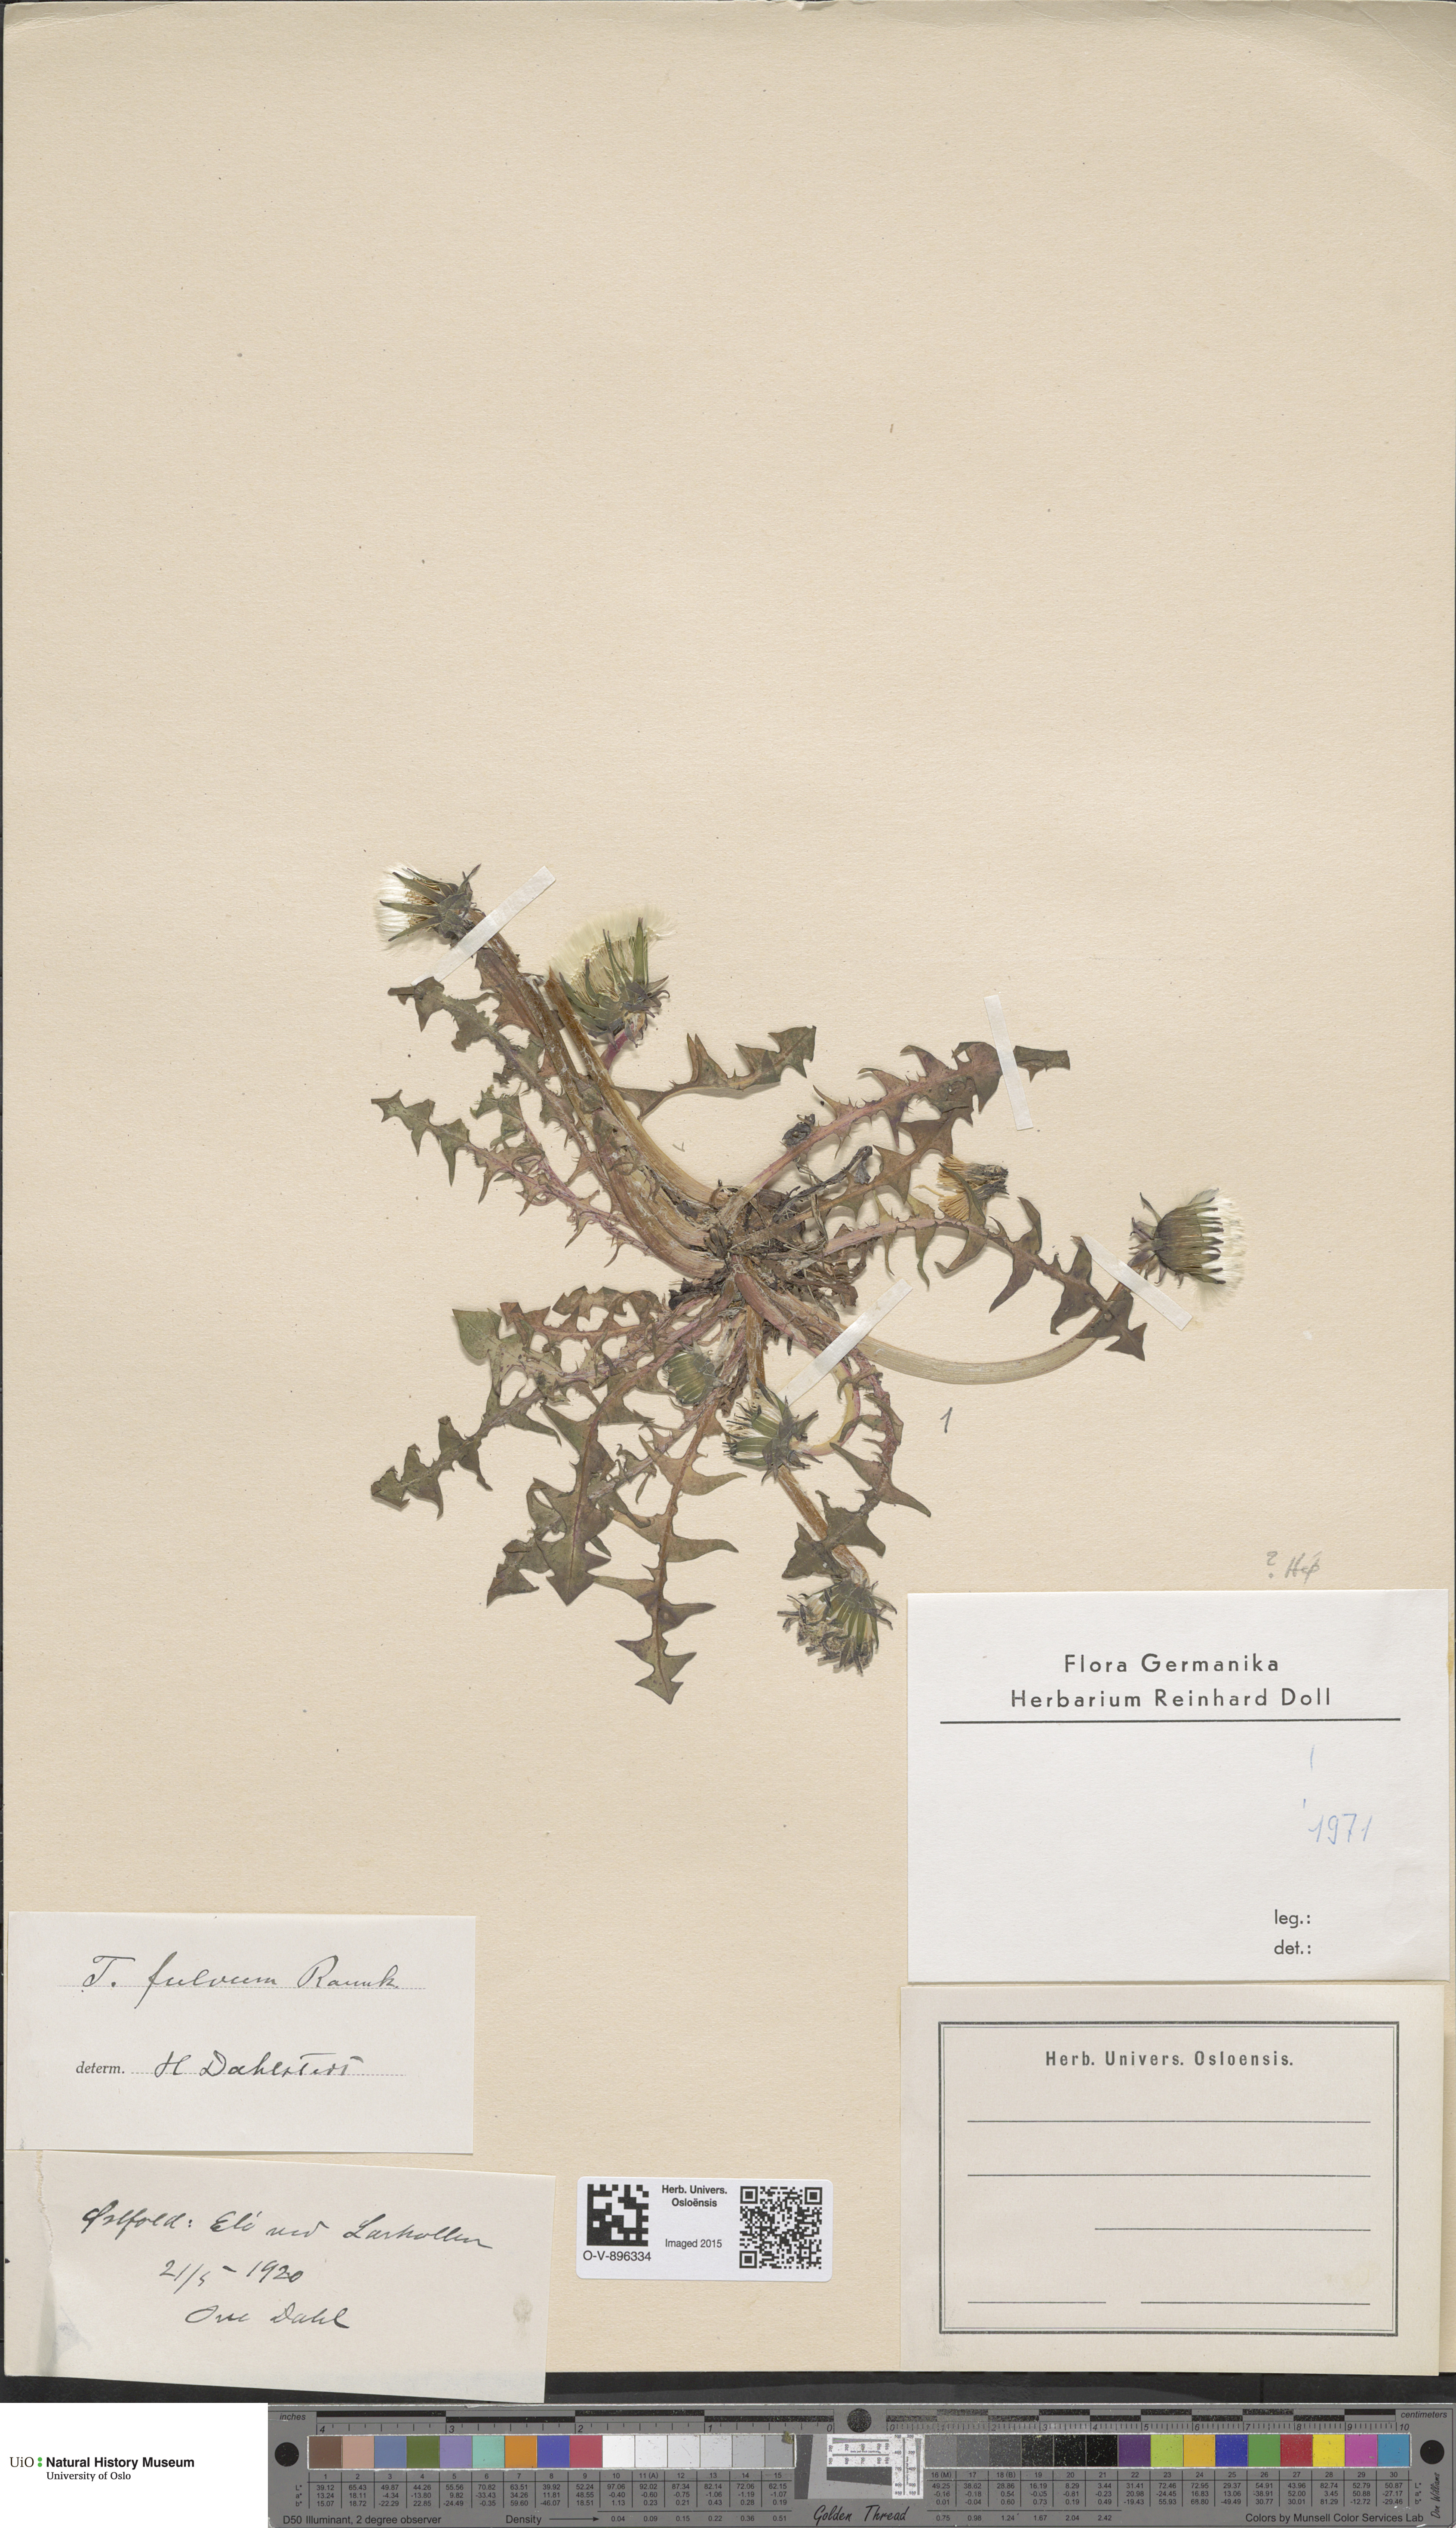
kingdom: Plantae
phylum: Tracheophyta
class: Magnoliopsida
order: Asterales
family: Asteraceae
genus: Taraxacum
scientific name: Taraxacum fulvum
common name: Cinnamon-fruited dandelion
